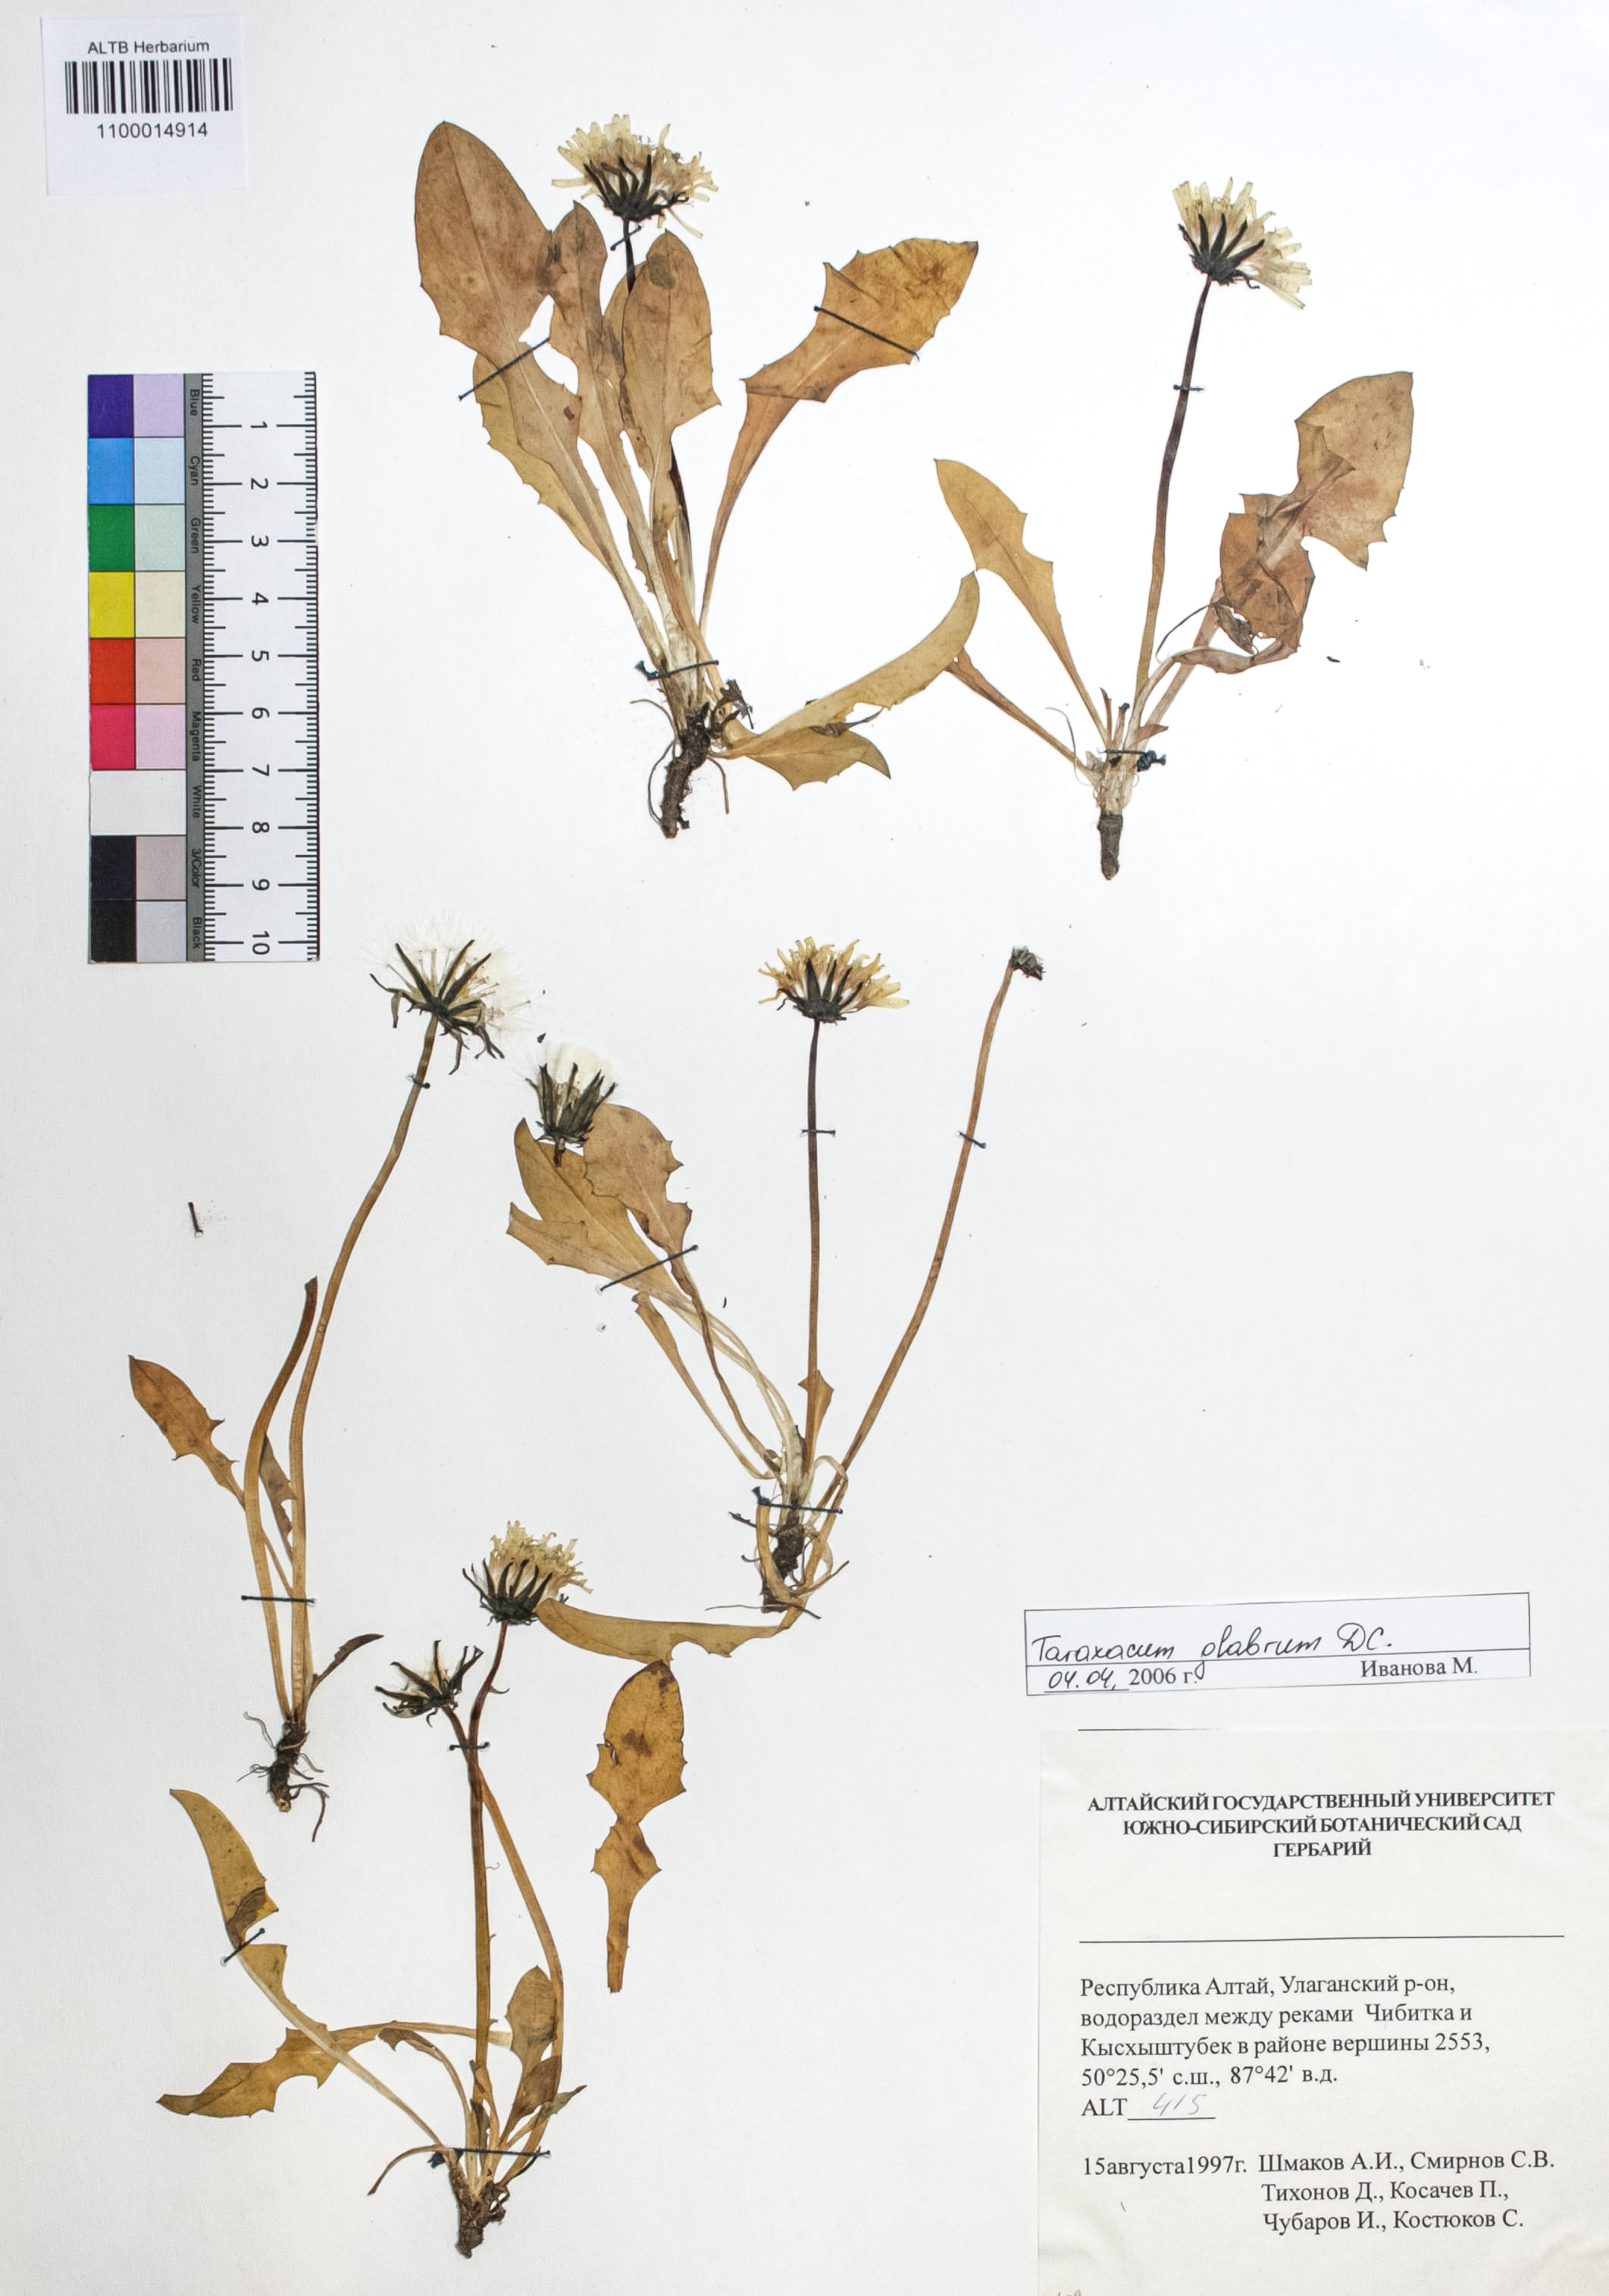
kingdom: Plantae
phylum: Tracheophyta
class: Magnoliopsida
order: Asterales
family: Asteraceae
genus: Taraxacum
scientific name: Taraxacum glabrum
